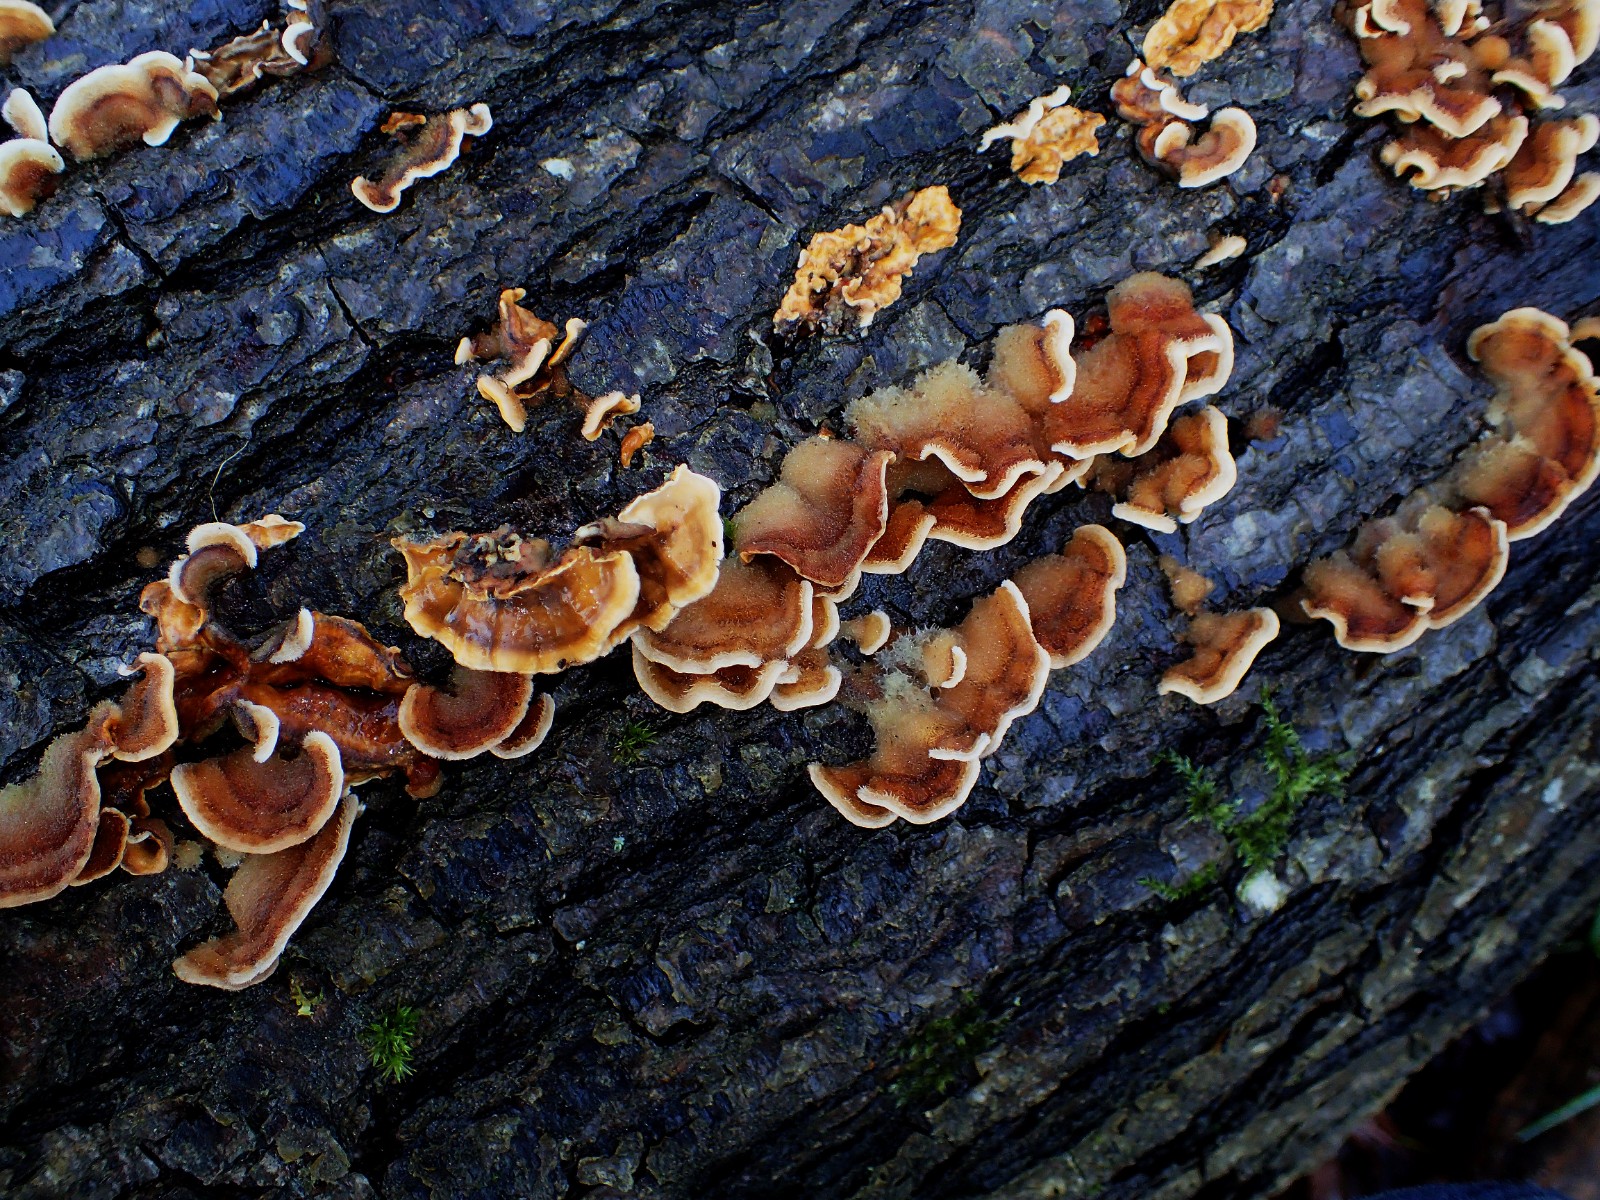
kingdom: Fungi
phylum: Basidiomycota
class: Agaricomycetes
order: Russulales
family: Stereaceae
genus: Stereum
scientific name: Stereum subtomentosum
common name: smuk lædersvamp
